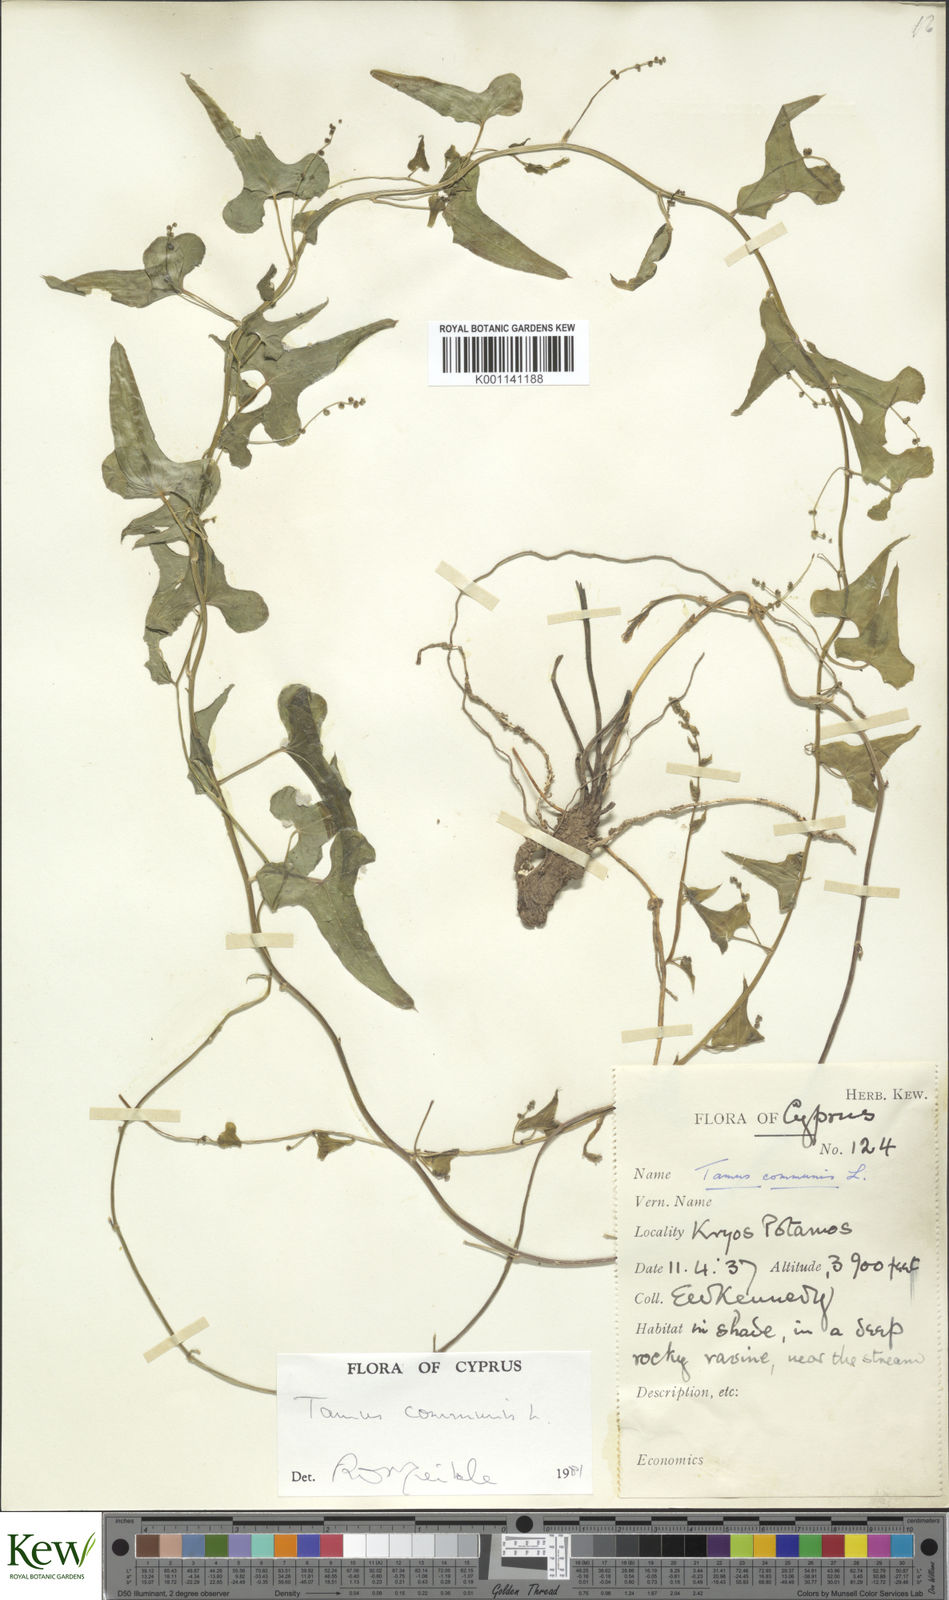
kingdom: Plantae
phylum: Tracheophyta
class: Liliopsida
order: Dioscoreales
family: Dioscoreaceae
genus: Dioscorea
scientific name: Dioscorea communis
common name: Black-bindweed
